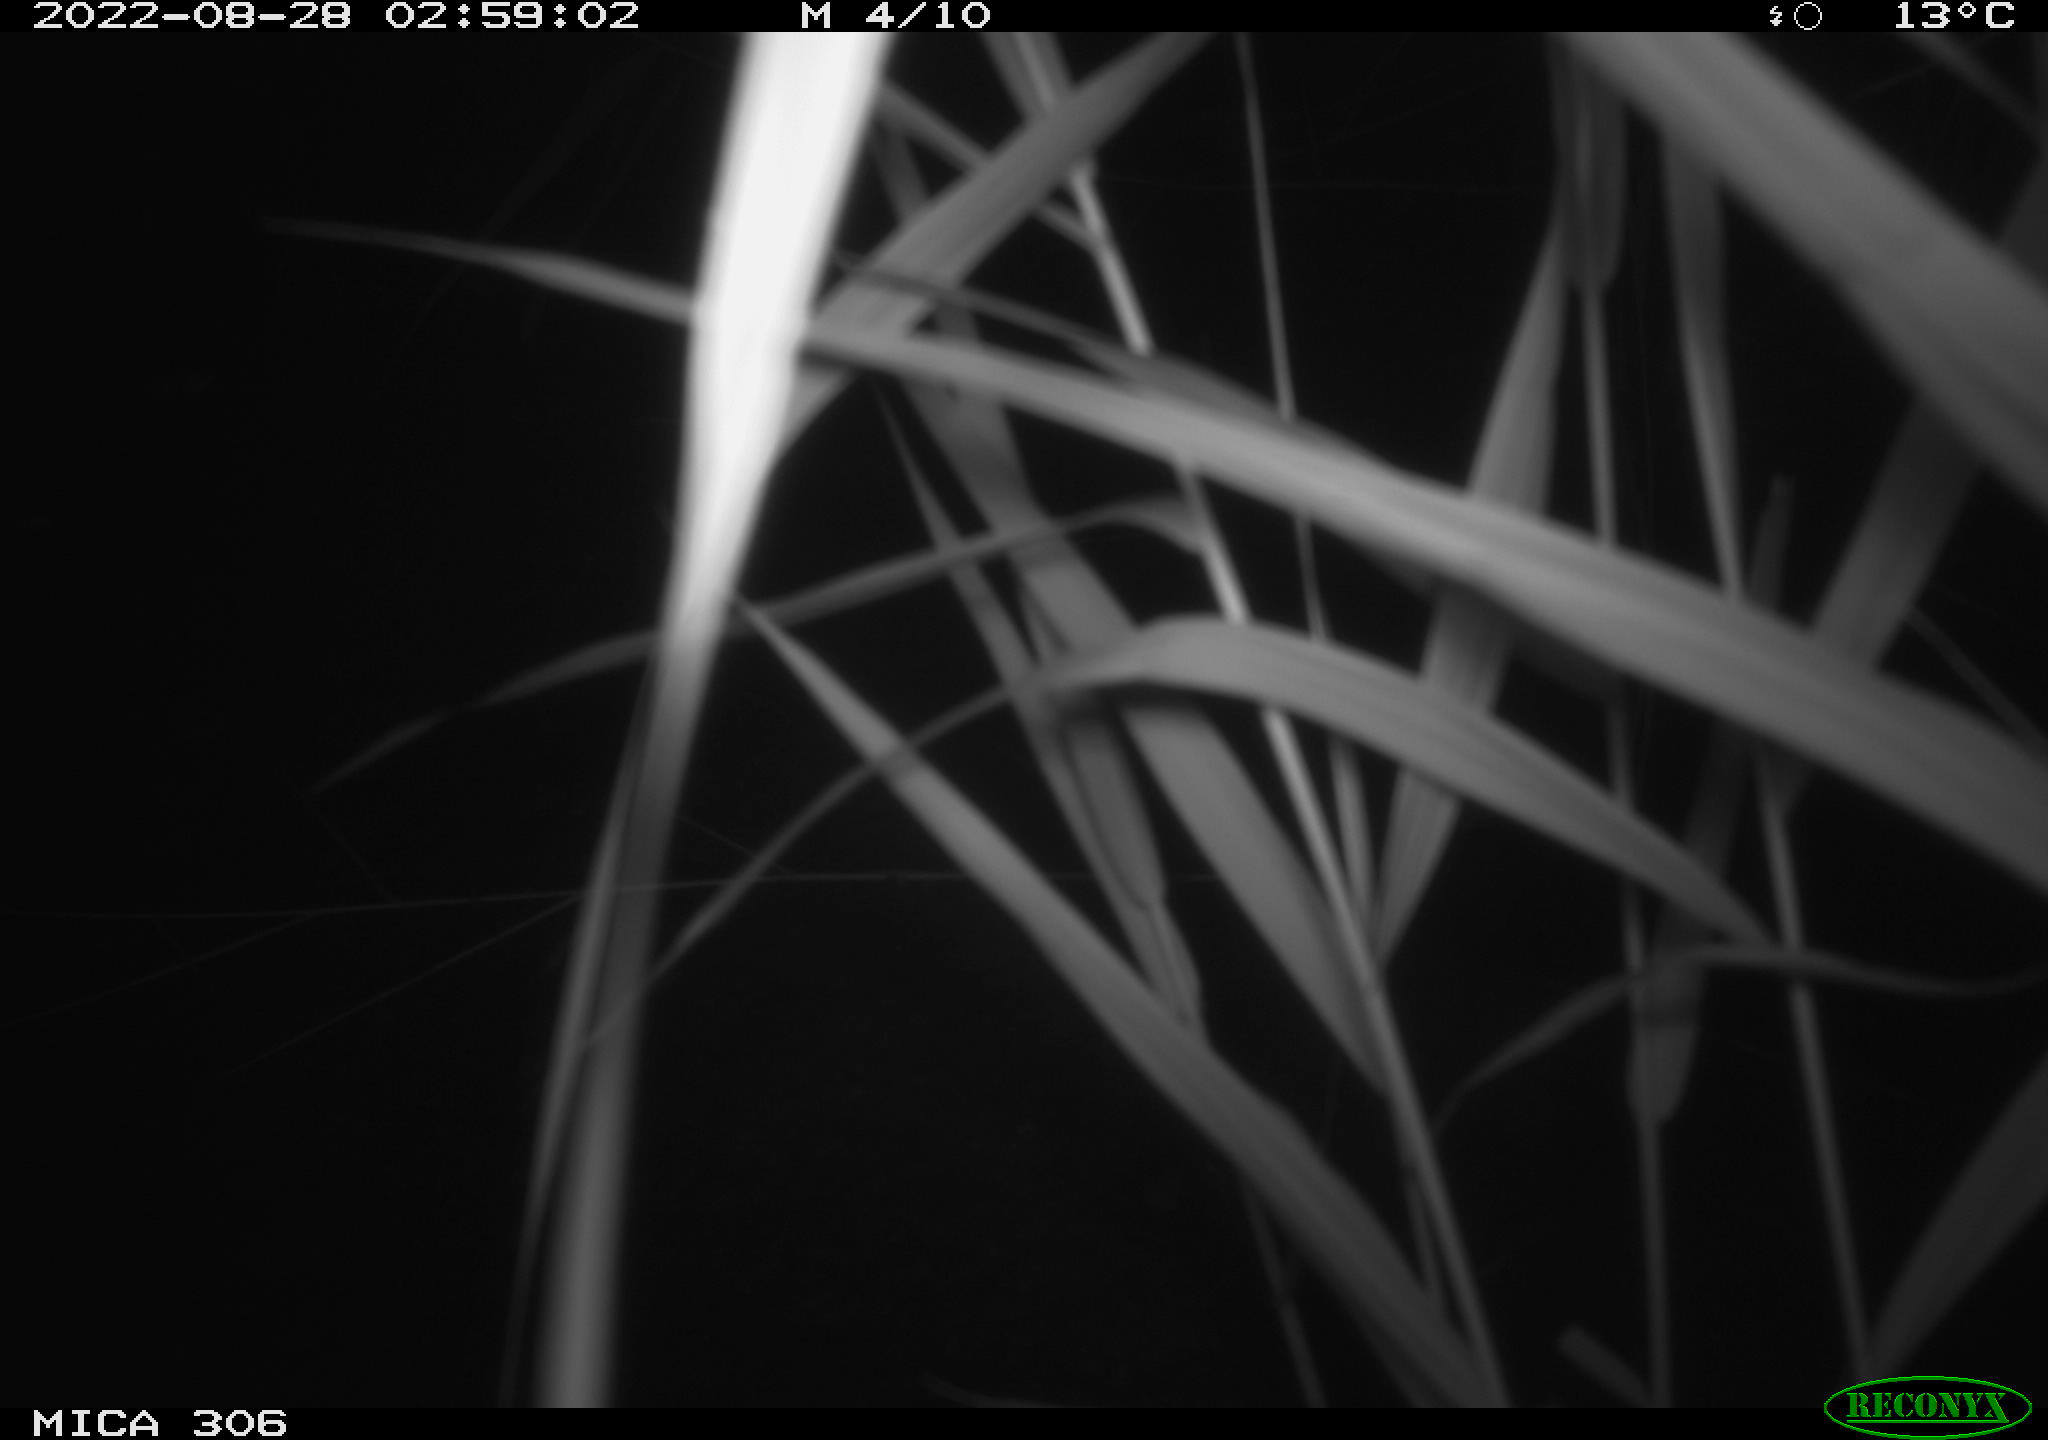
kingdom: Animalia
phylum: Chordata
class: Mammalia
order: Rodentia
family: Muridae
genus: Rattus
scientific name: Rattus norvegicus
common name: Brown rat
